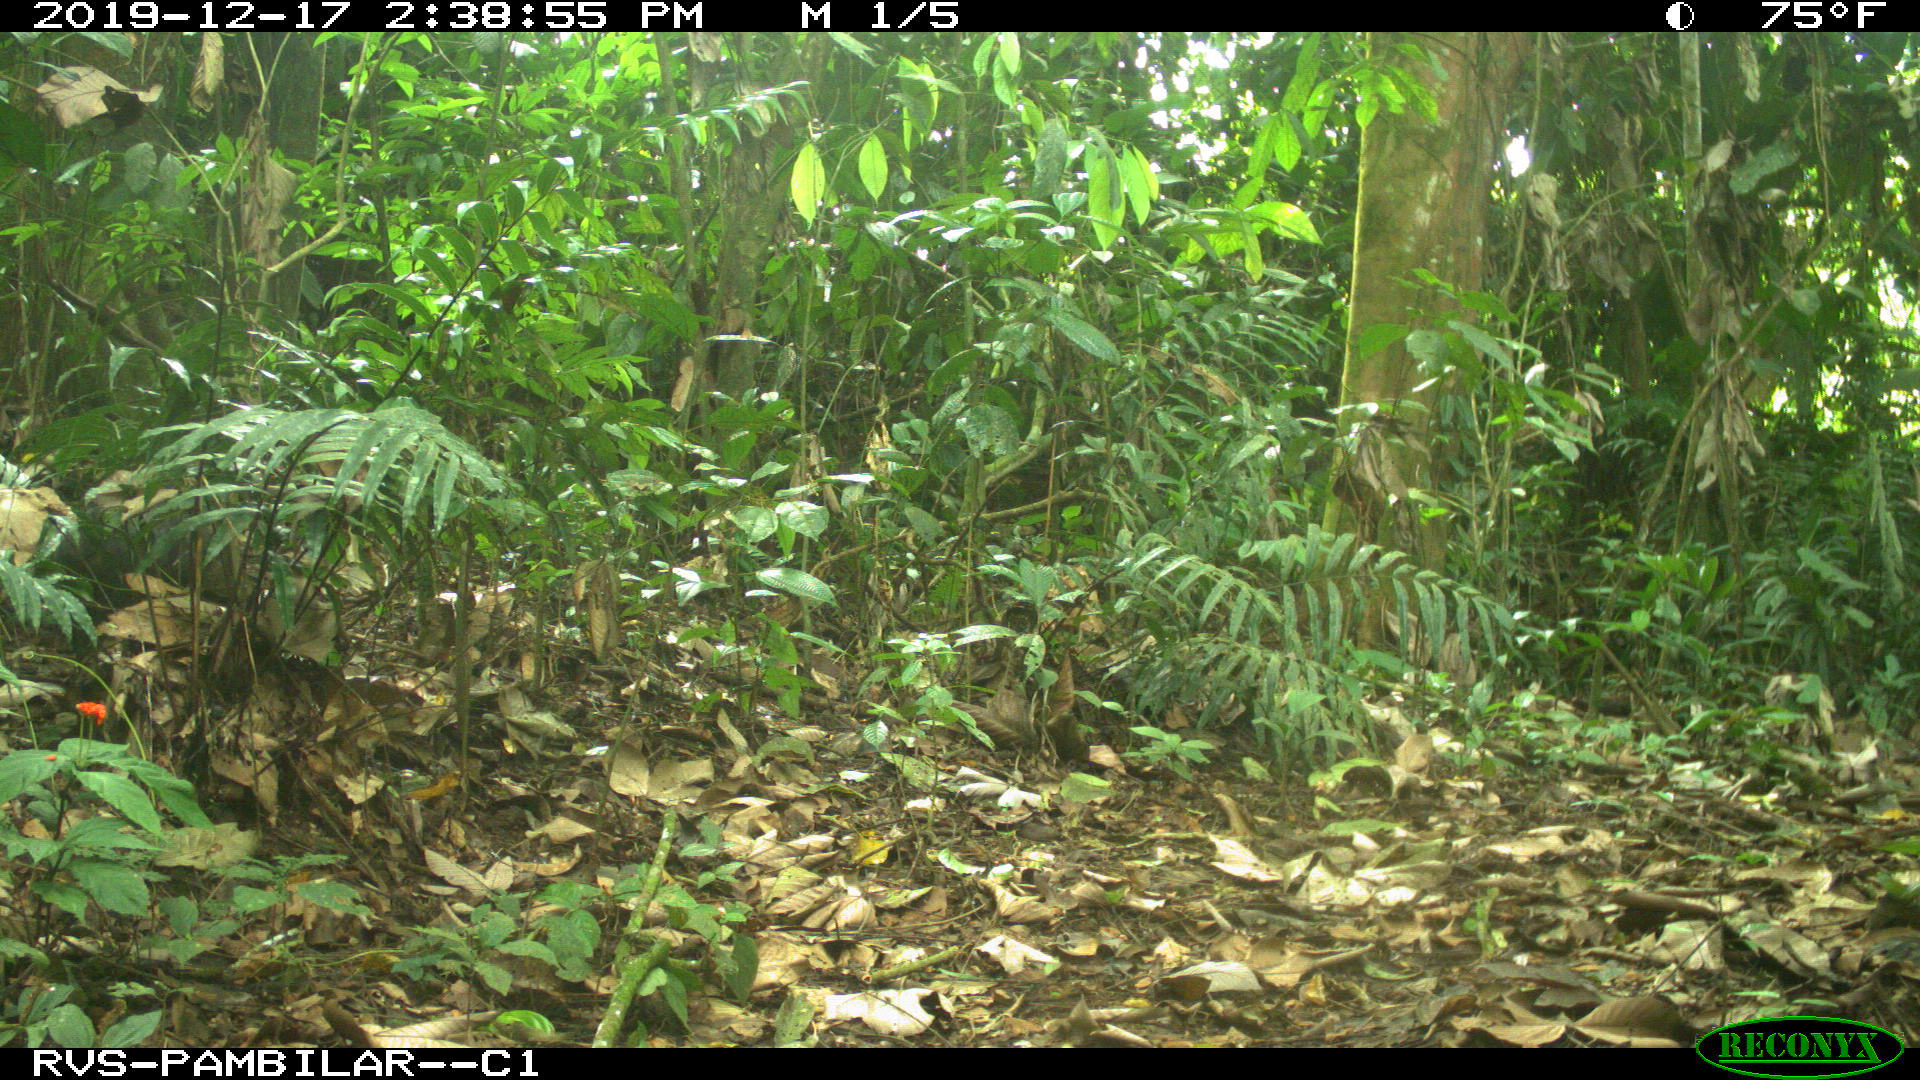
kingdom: Animalia
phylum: Chordata
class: Mammalia
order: Artiodactyla
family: Tayassuidae
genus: Pecari
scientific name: Pecari tajacu
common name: Collared peccary
